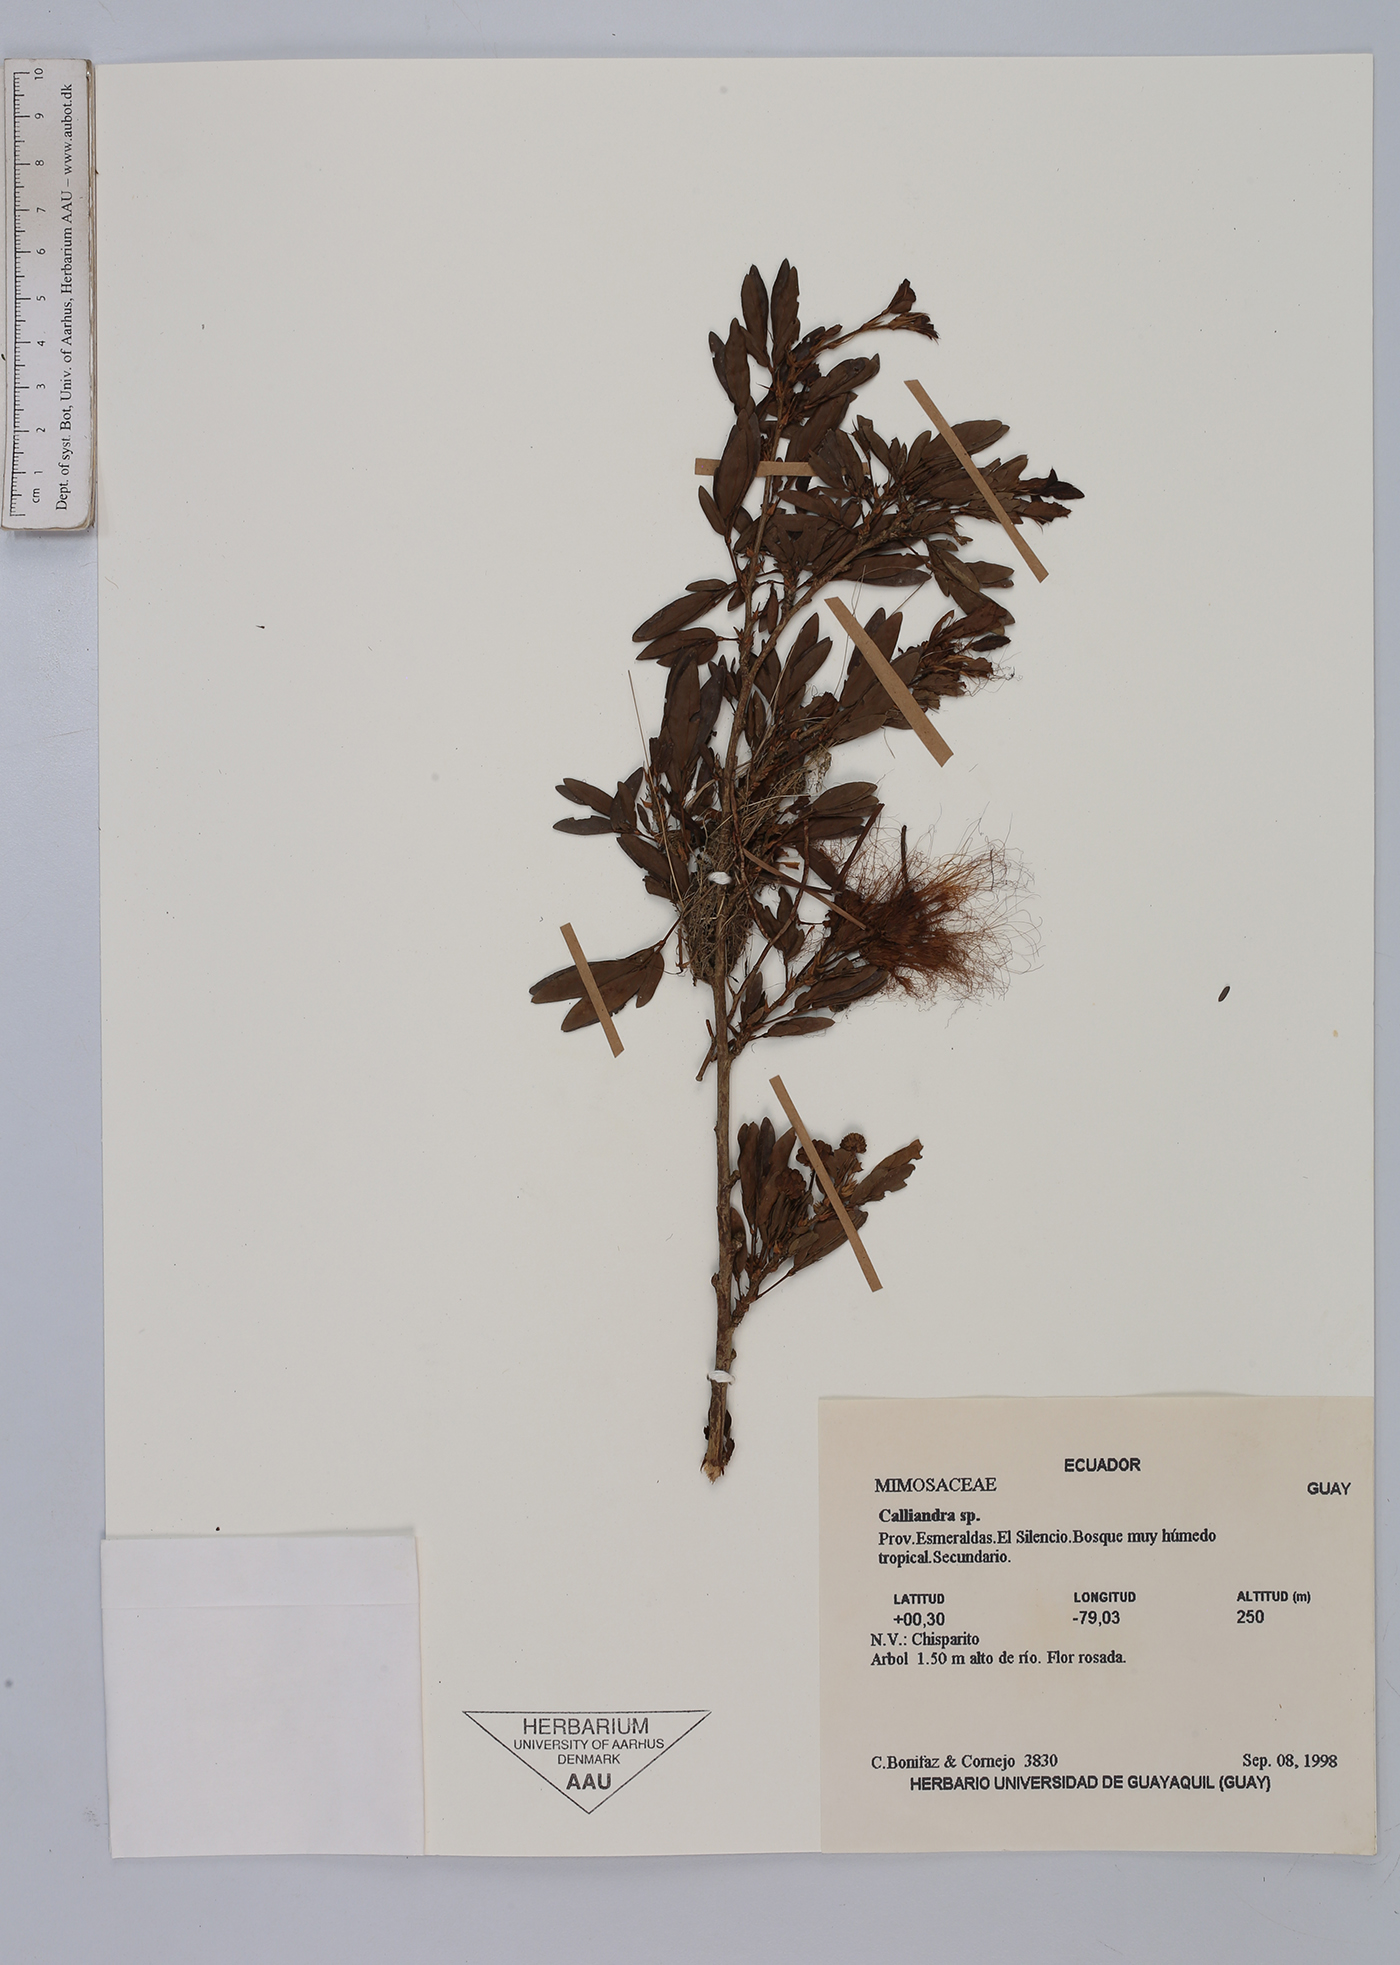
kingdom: Plantae
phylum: Tracheophyta
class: Magnoliopsida
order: Fabales
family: Fabaceae
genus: Calliandra
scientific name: Calliandra
